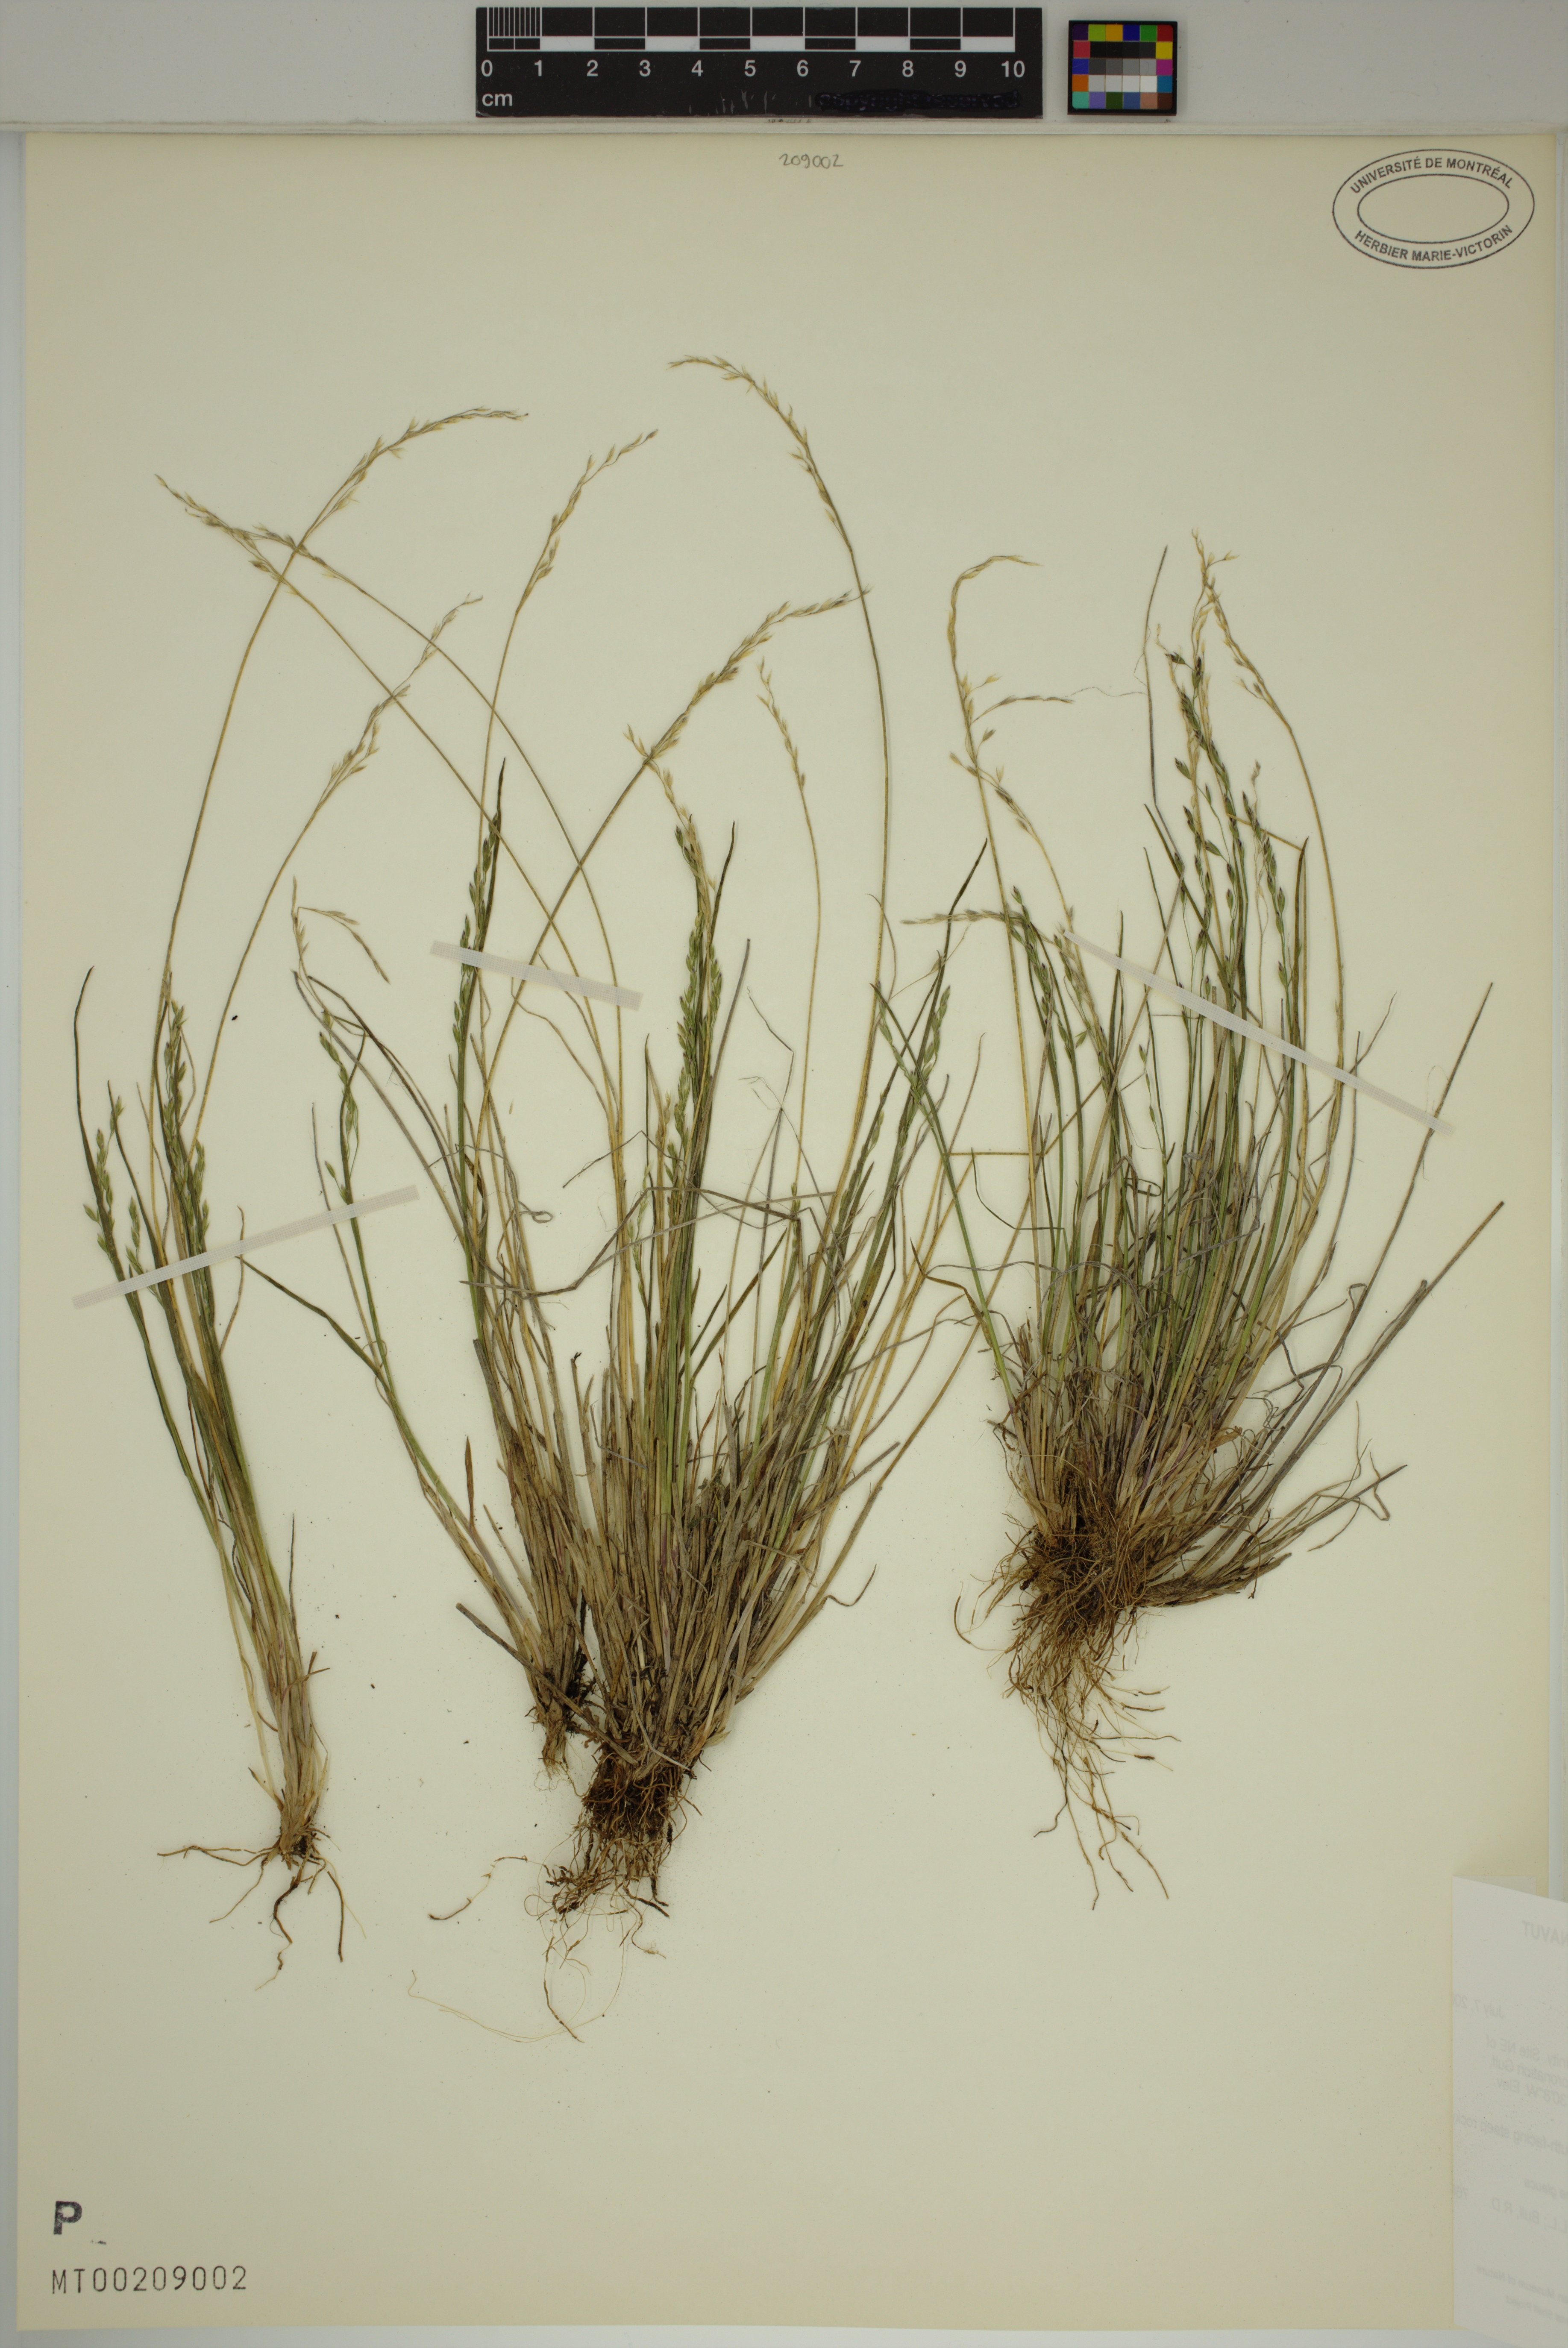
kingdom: Plantae
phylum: Tracheophyta
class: Liliopsida
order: Poales
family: Poaceae
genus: Poa
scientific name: Poa glauca
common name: Glaucous bluegrass
